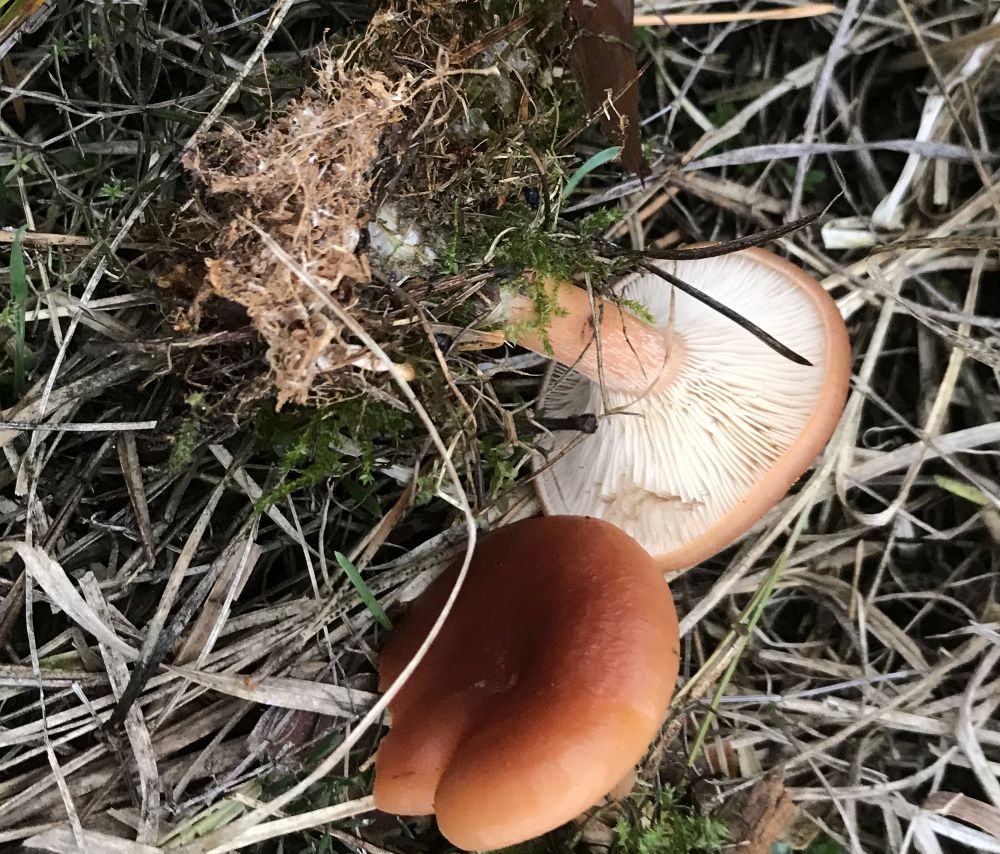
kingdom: Fungi
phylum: Basidiomycota
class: Agaricomycetes
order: Russulales
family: Russulaceae
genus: Lactarius
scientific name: Lactarius tabidus
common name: rynket mælkehat
